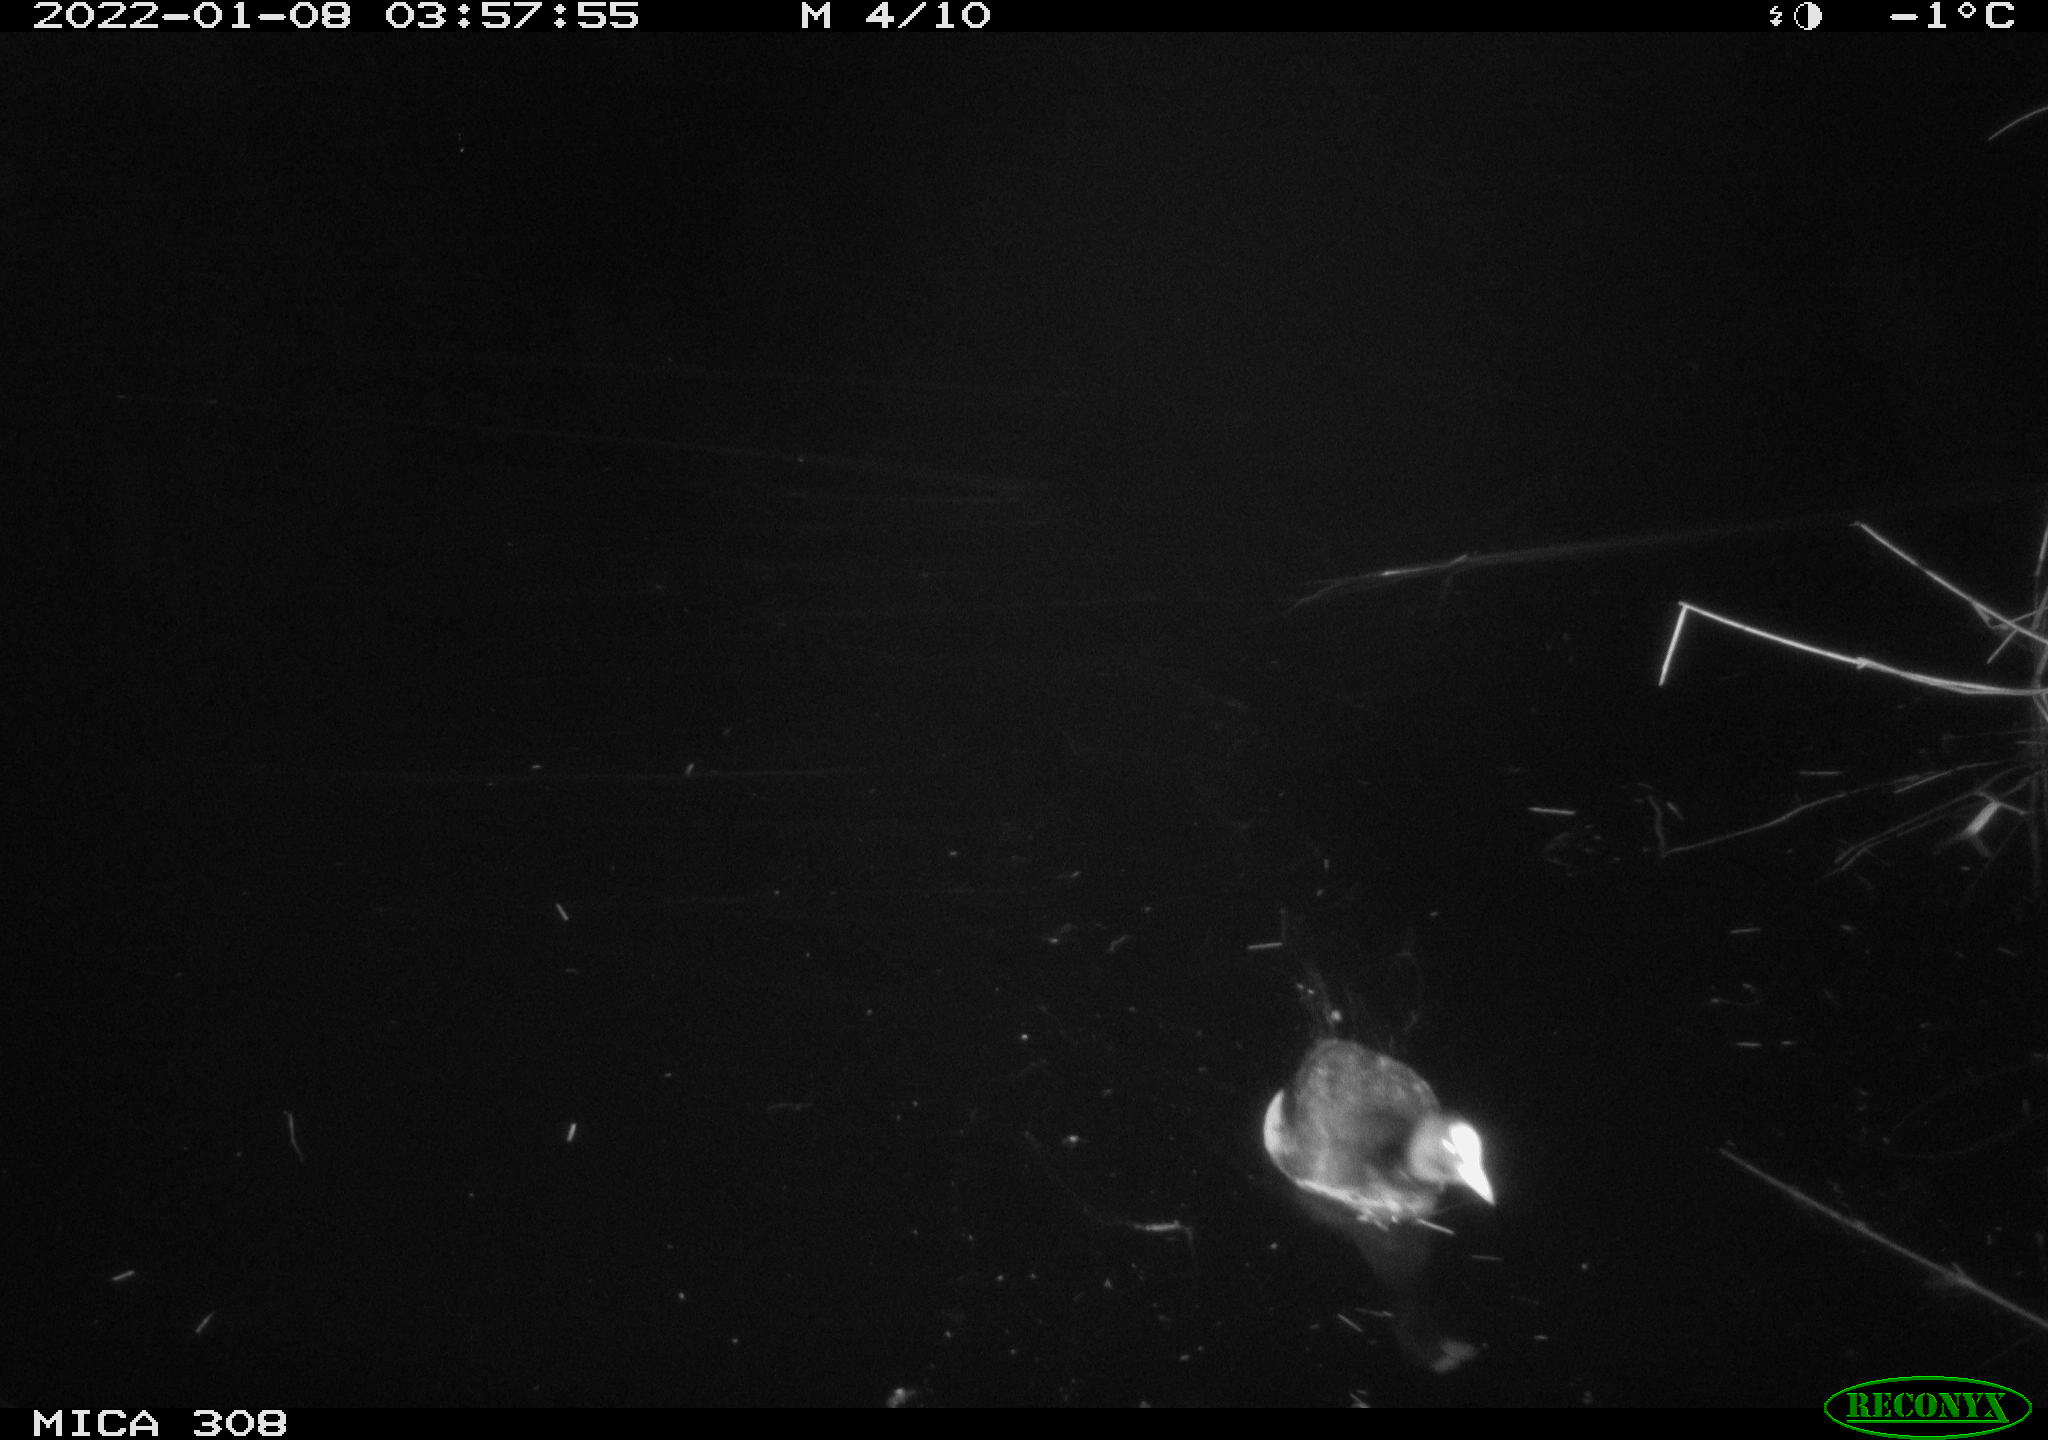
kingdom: Animalia
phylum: Chordata
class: Aves
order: Gruiformes
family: Rallidae
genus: Fulica
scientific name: Fulica atra
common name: Eurasian coot
